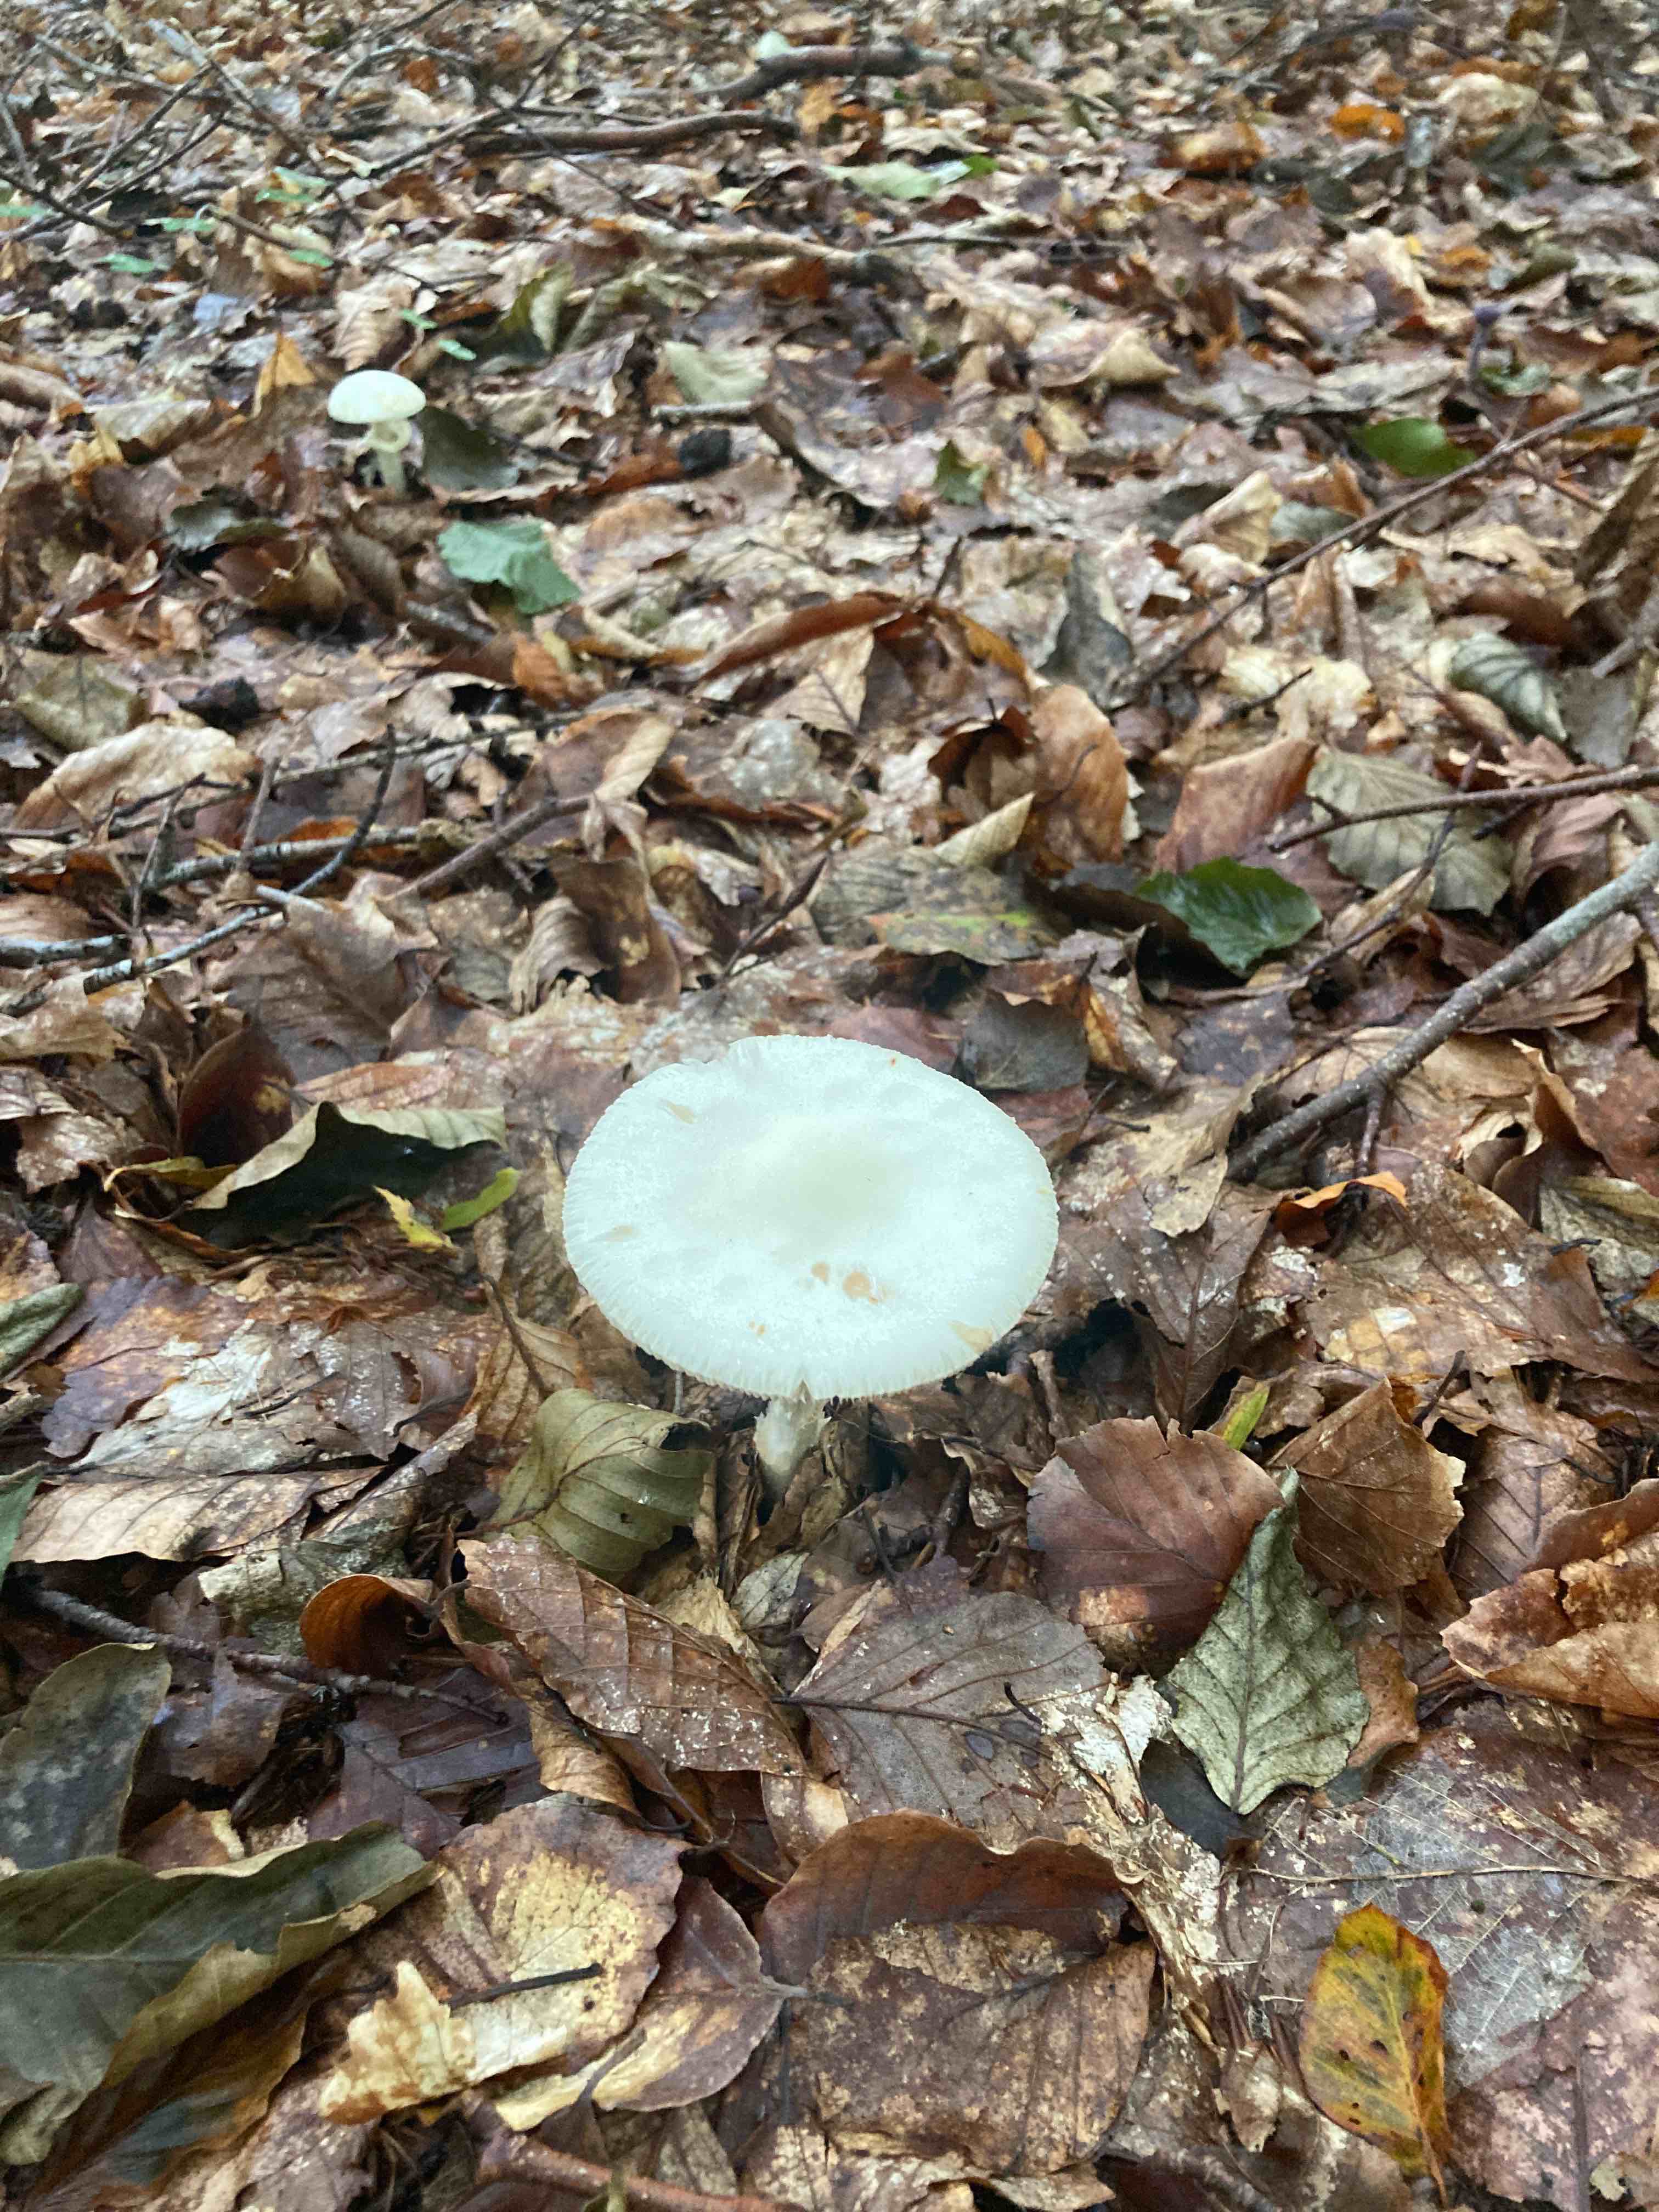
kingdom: Fungi
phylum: Basidiomycota
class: Agaricomycetes
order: Agaricales
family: Amanitaceae
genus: Amanita
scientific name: Amanita citrina
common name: kugleknoldet fluesvamp
